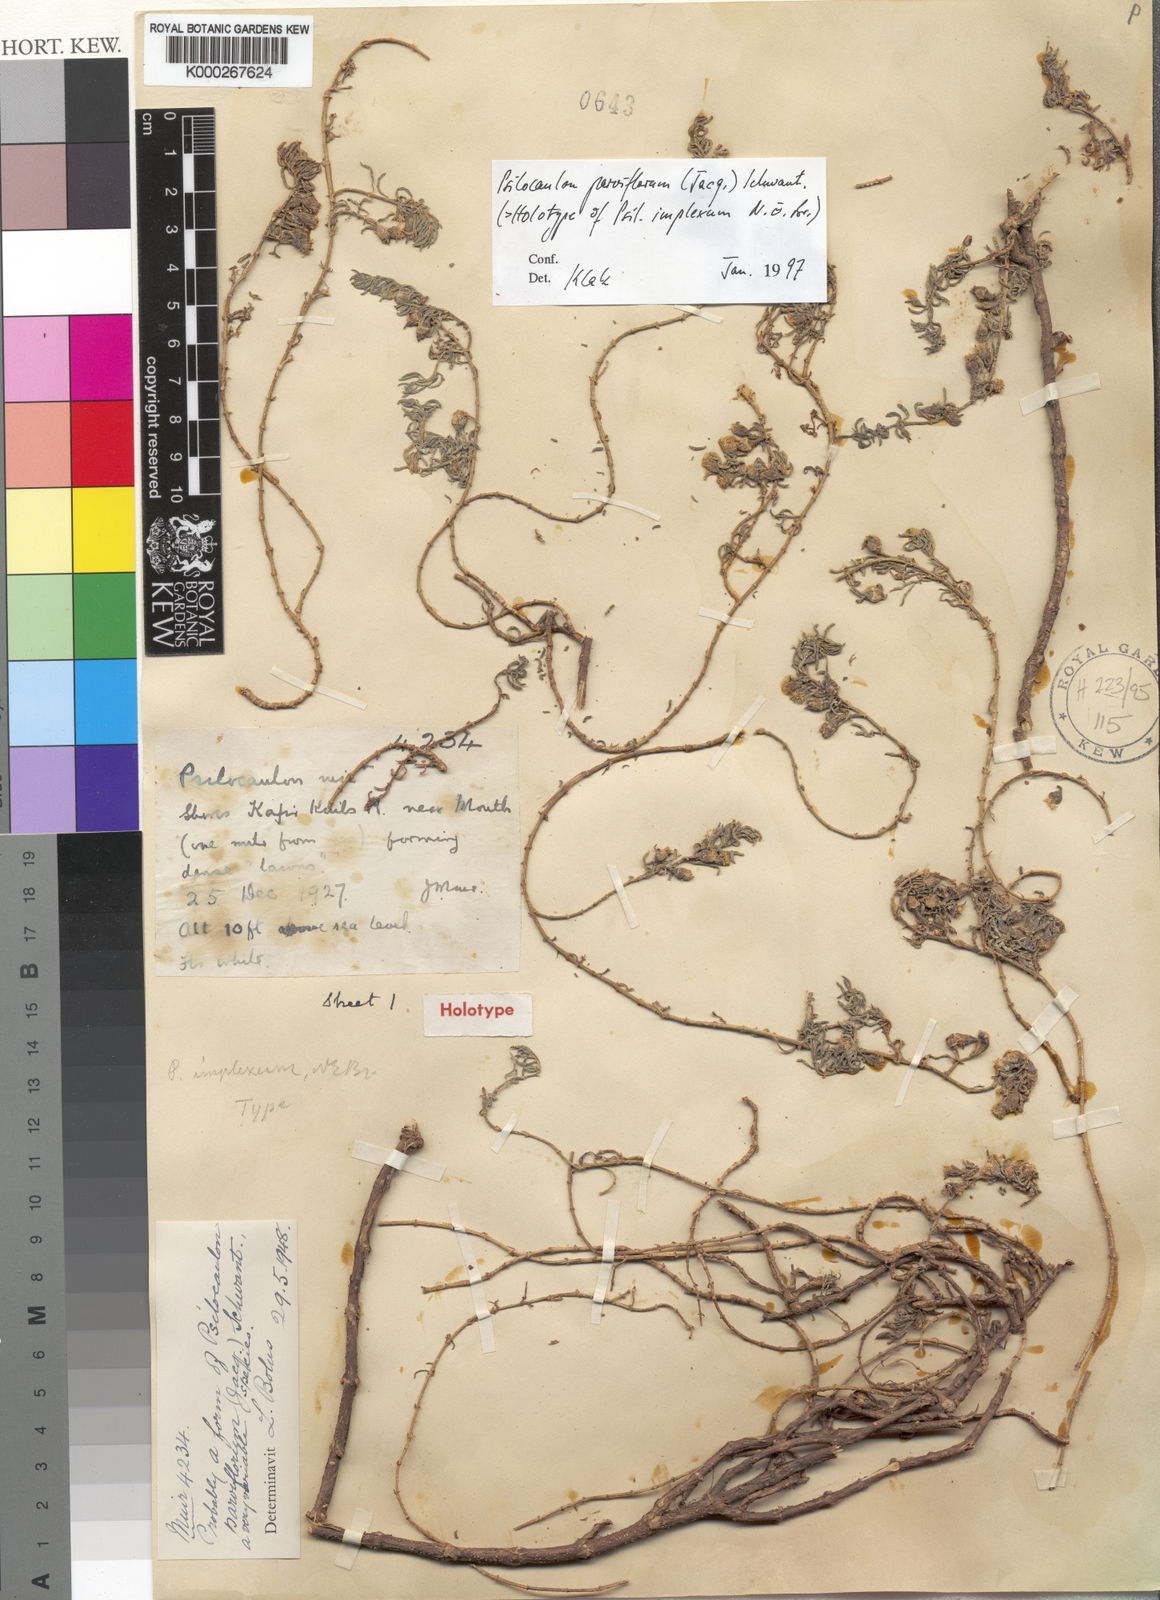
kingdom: Plantae
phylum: Tracheophyta
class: Magnoliopsida
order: Caryophyllales
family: Aizoaceae
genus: Mesembryanthemum
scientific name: Mesembryanthemum parviflorum
